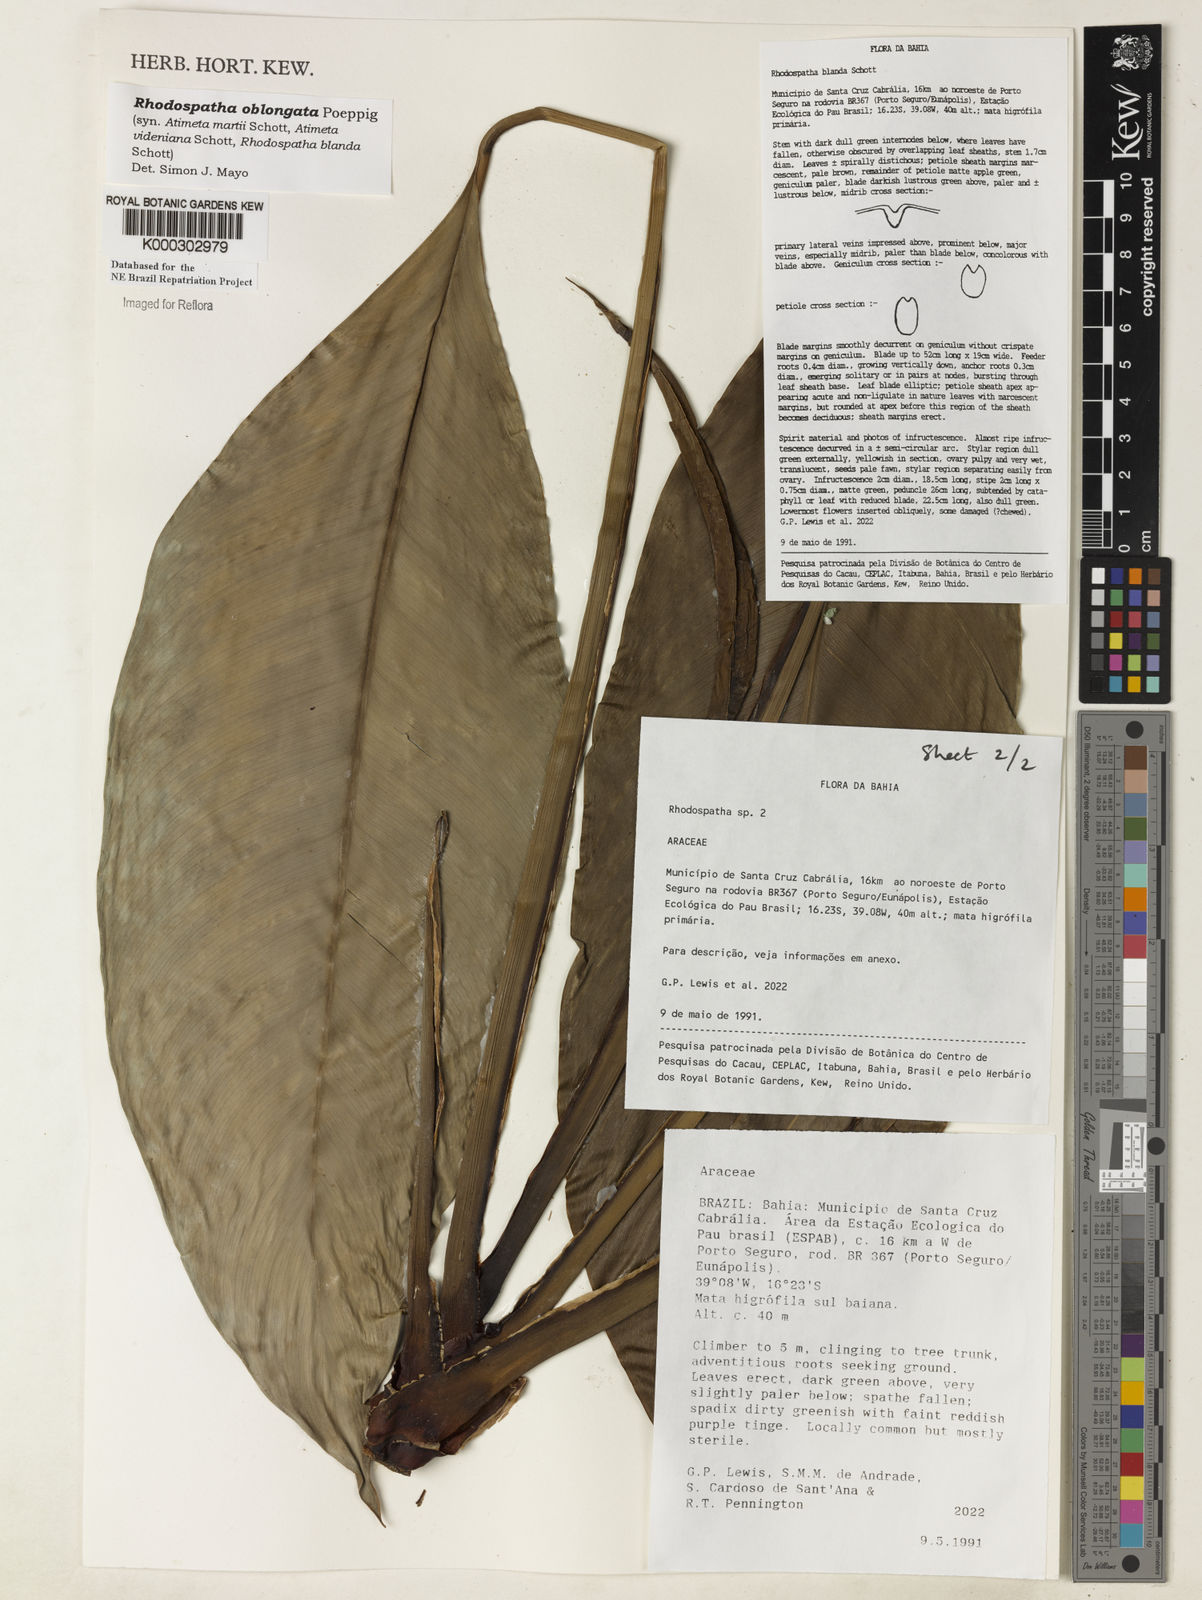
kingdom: Plantae
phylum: Tracheophyta
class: Liliopsida
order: Alismatales
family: Araceae
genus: Rhodospatha
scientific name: Rhodospatha oblongata
